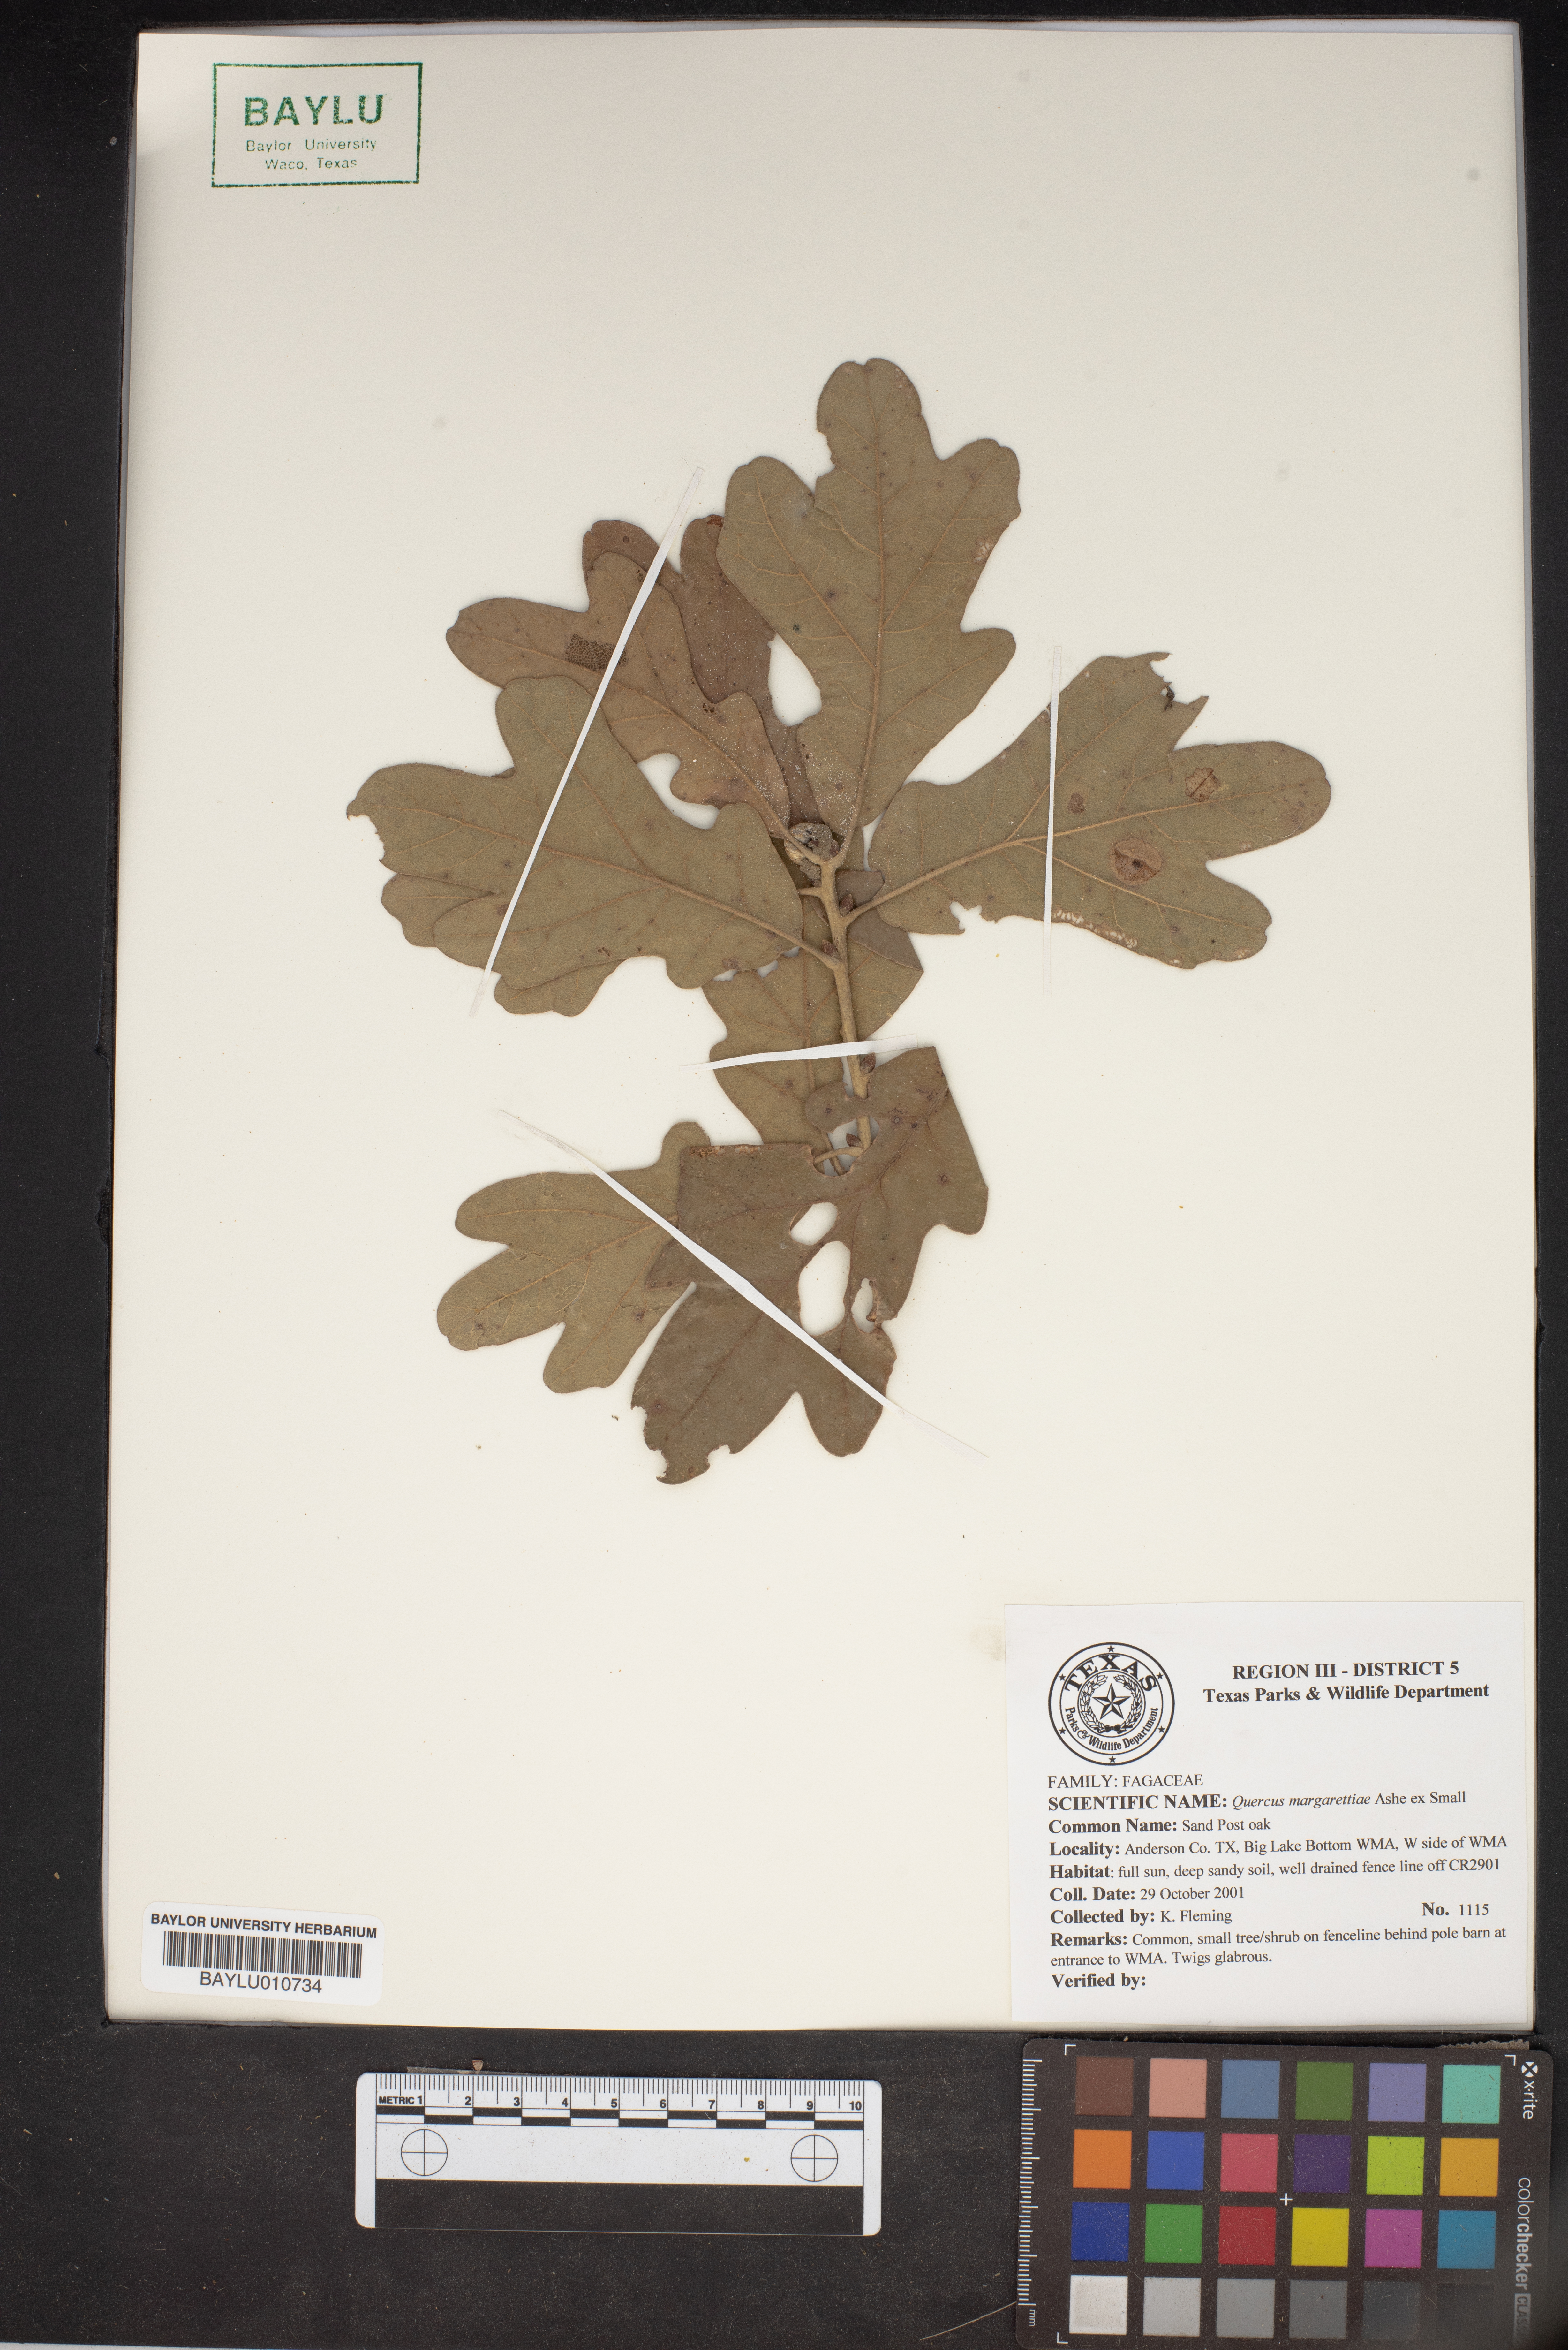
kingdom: Plantae
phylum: Tracheophyta
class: Magnoliopsida
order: Fagales
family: Fagaceae
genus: Quercus
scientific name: Quercus margaretiae
